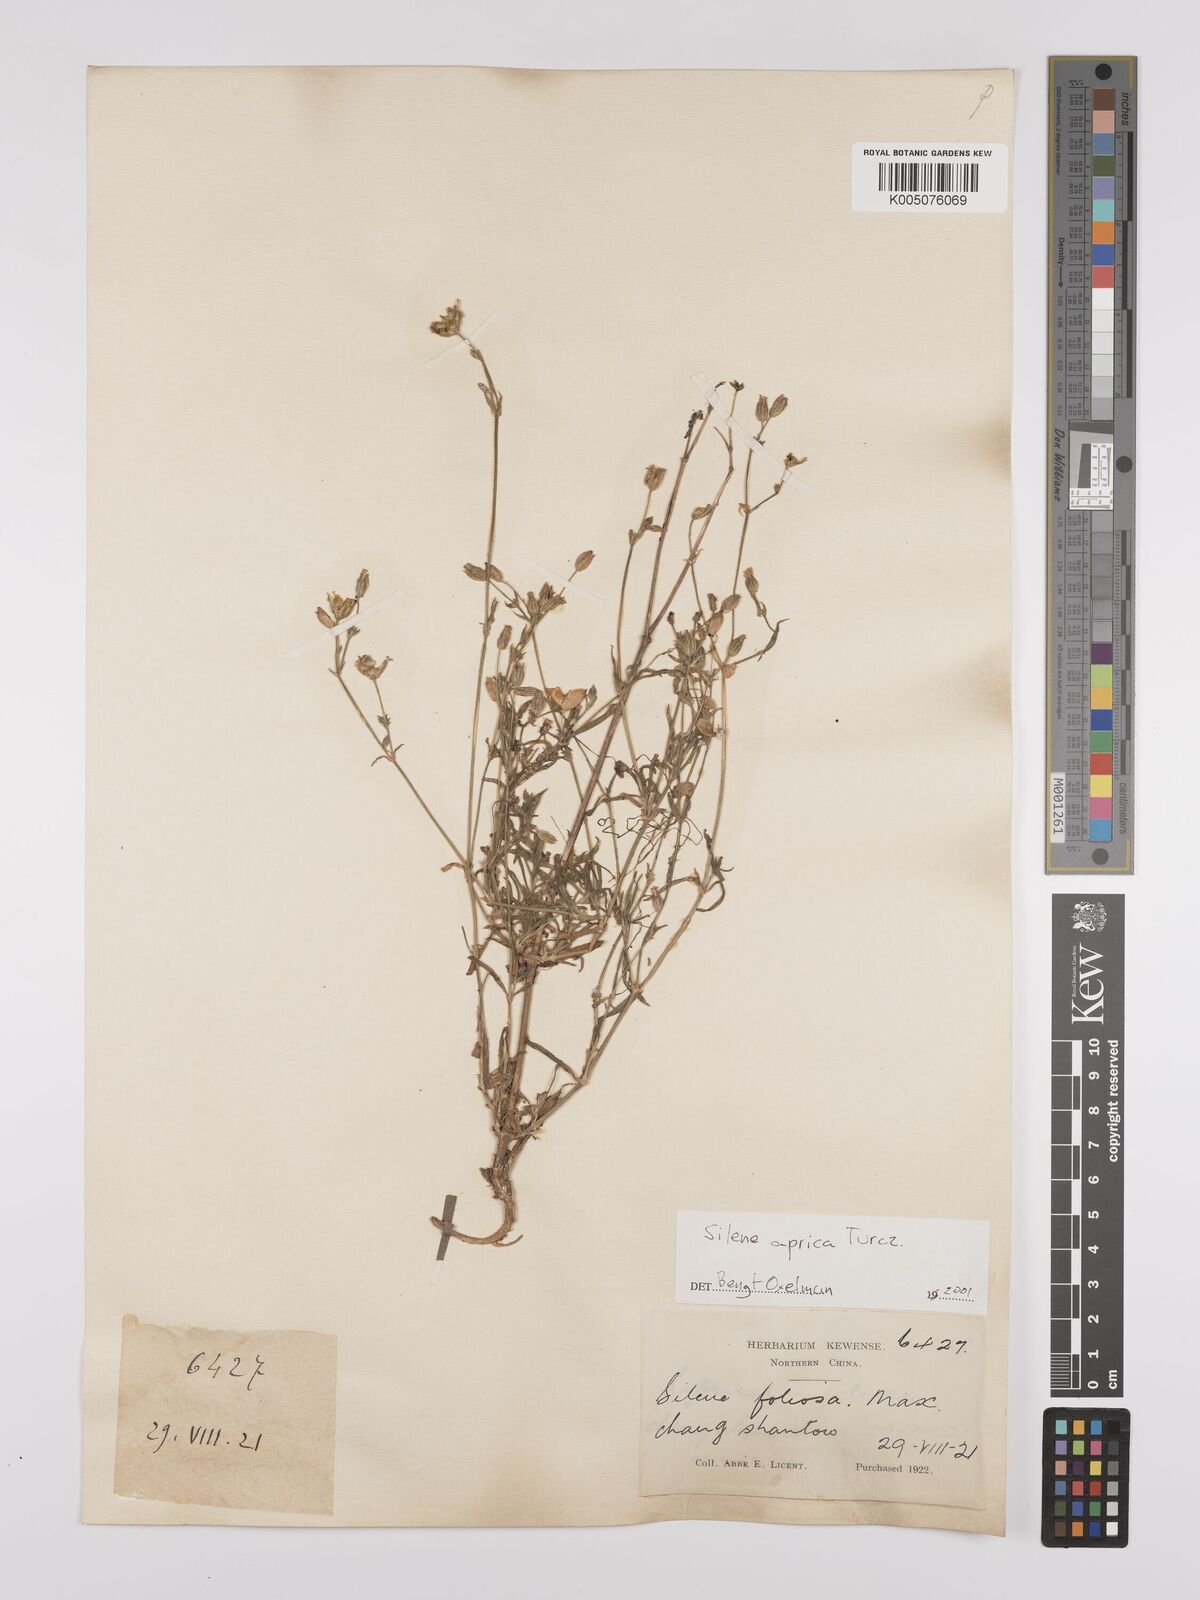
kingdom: Plantae
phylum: Tracheophyta
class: Magnoliopsida
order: Caryophyllales
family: Caryophyllaceae
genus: Silene
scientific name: Silene aprica
